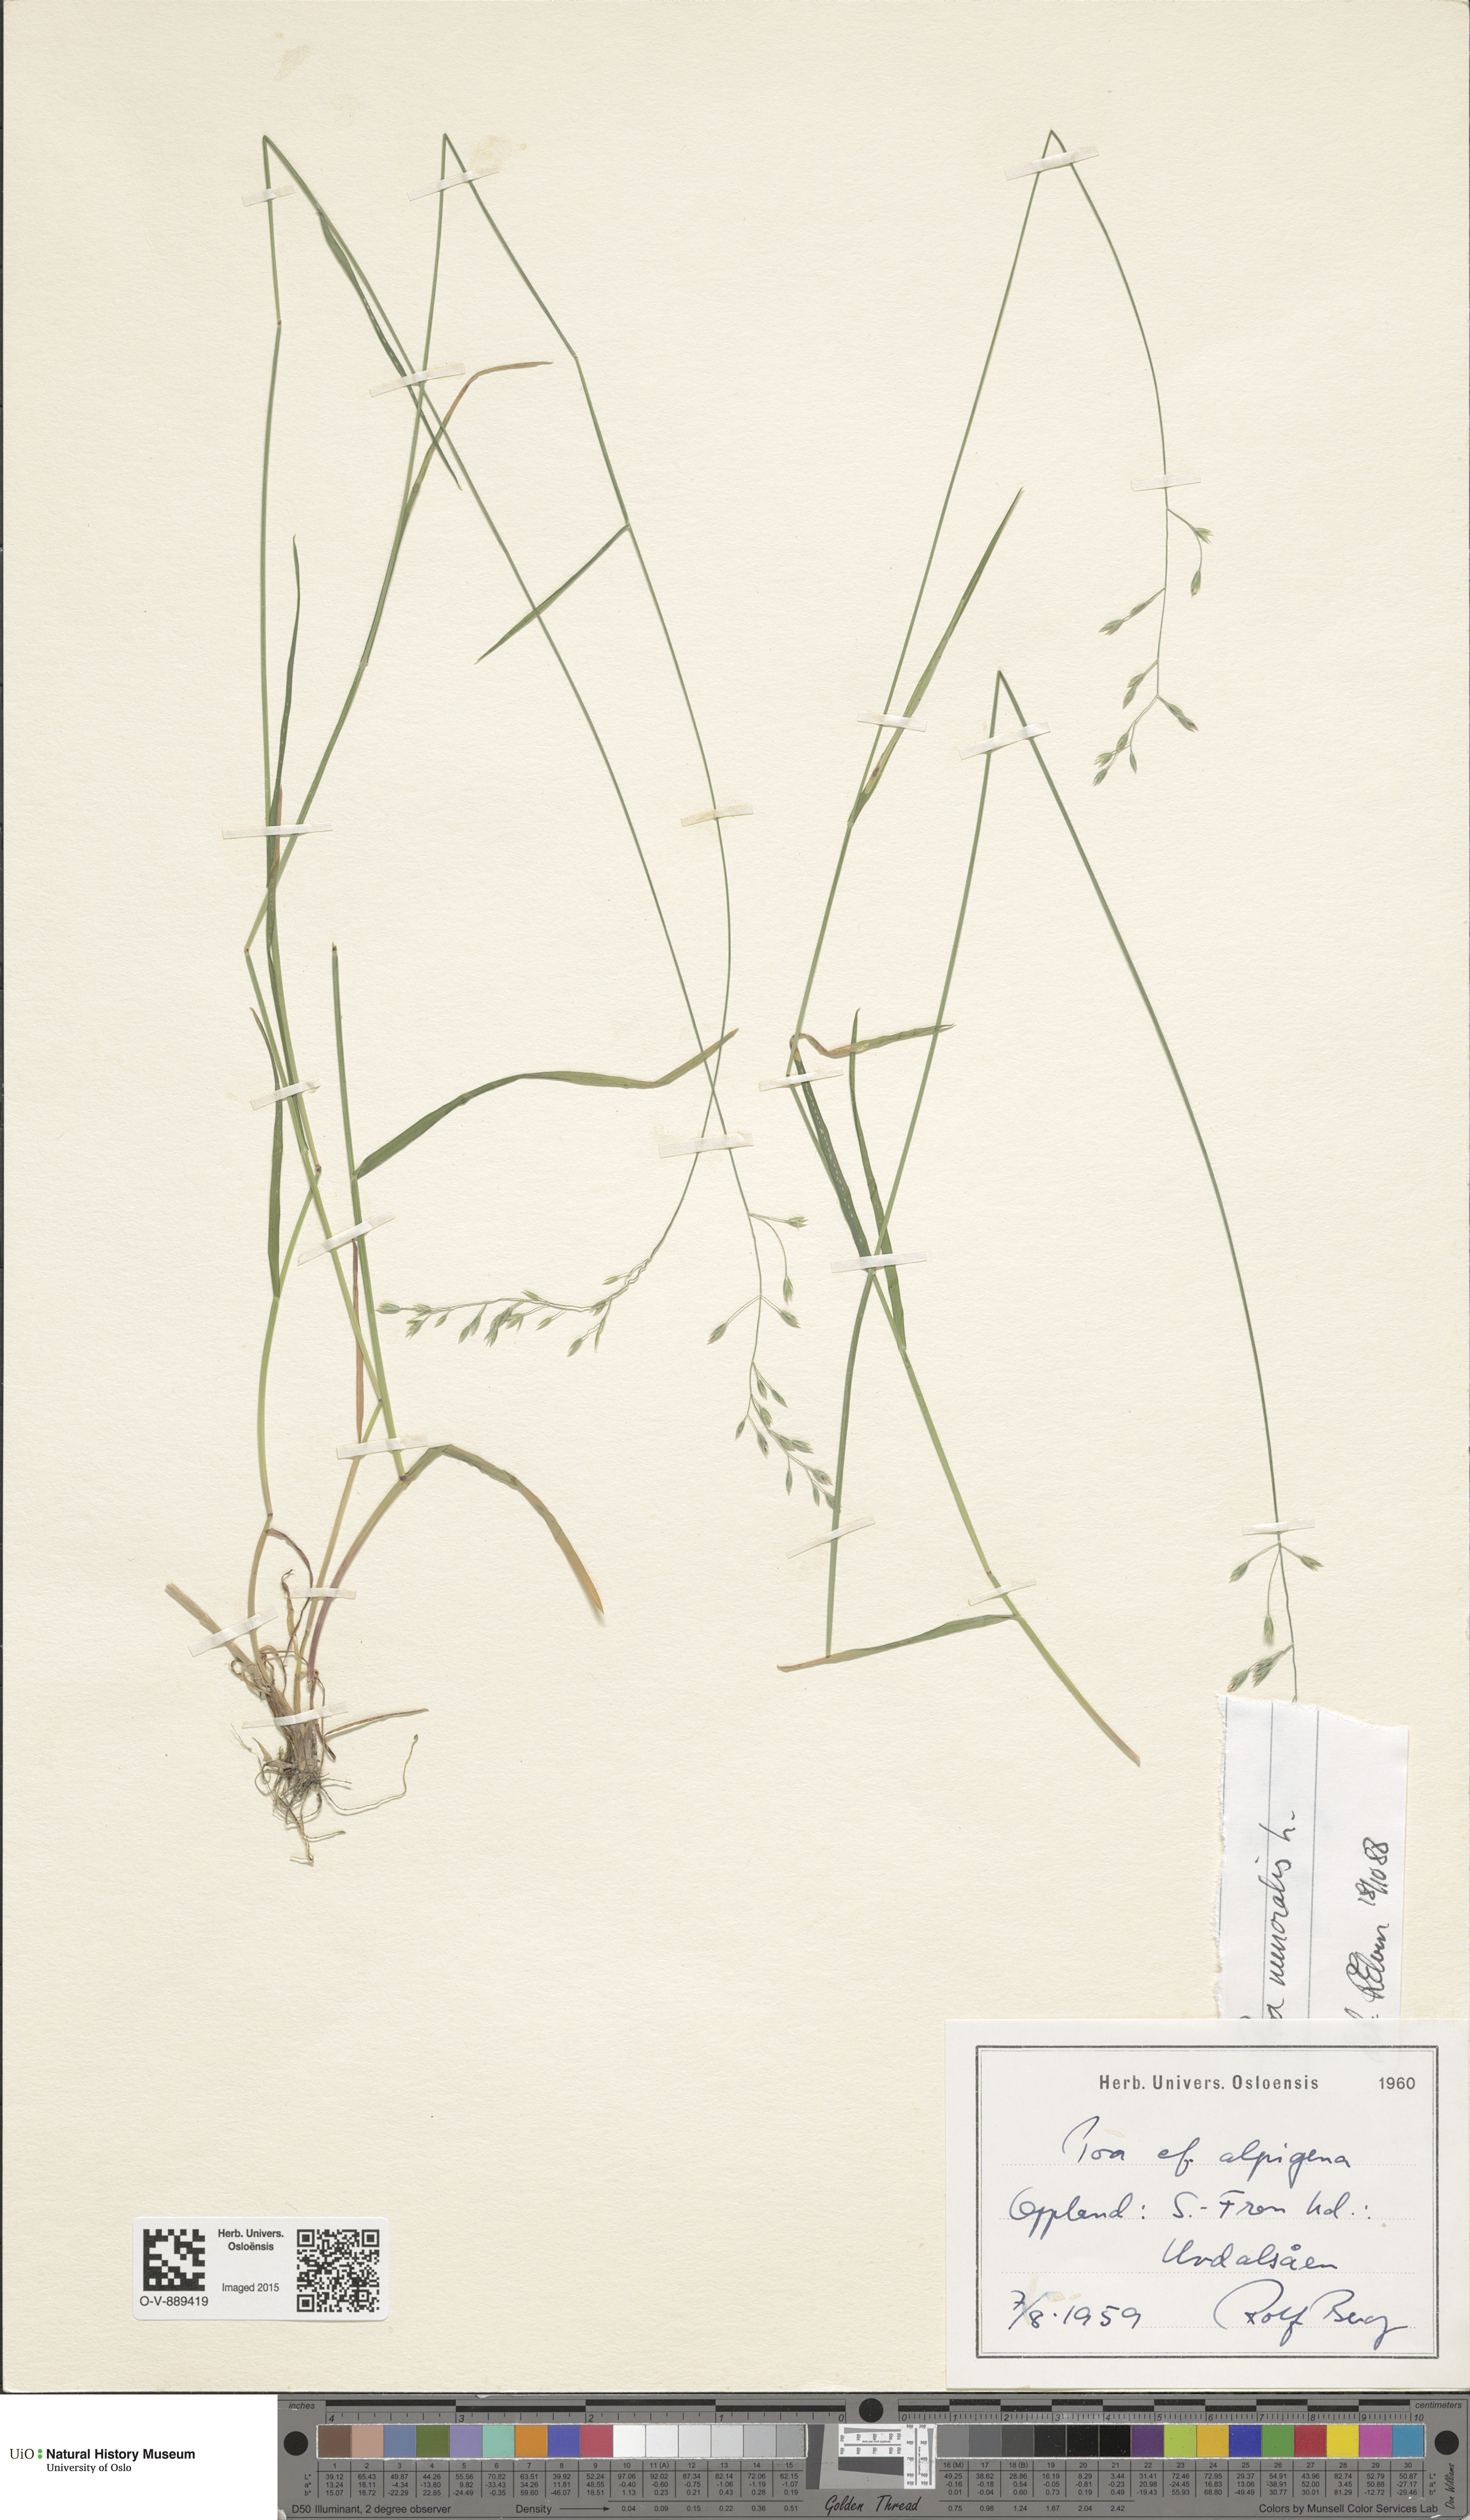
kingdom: Plantae
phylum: Tracheophyta
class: Liliopsida
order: Poales
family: Poaceae
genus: Poa
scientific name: Poa nemoralis
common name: Wood bluegrass
